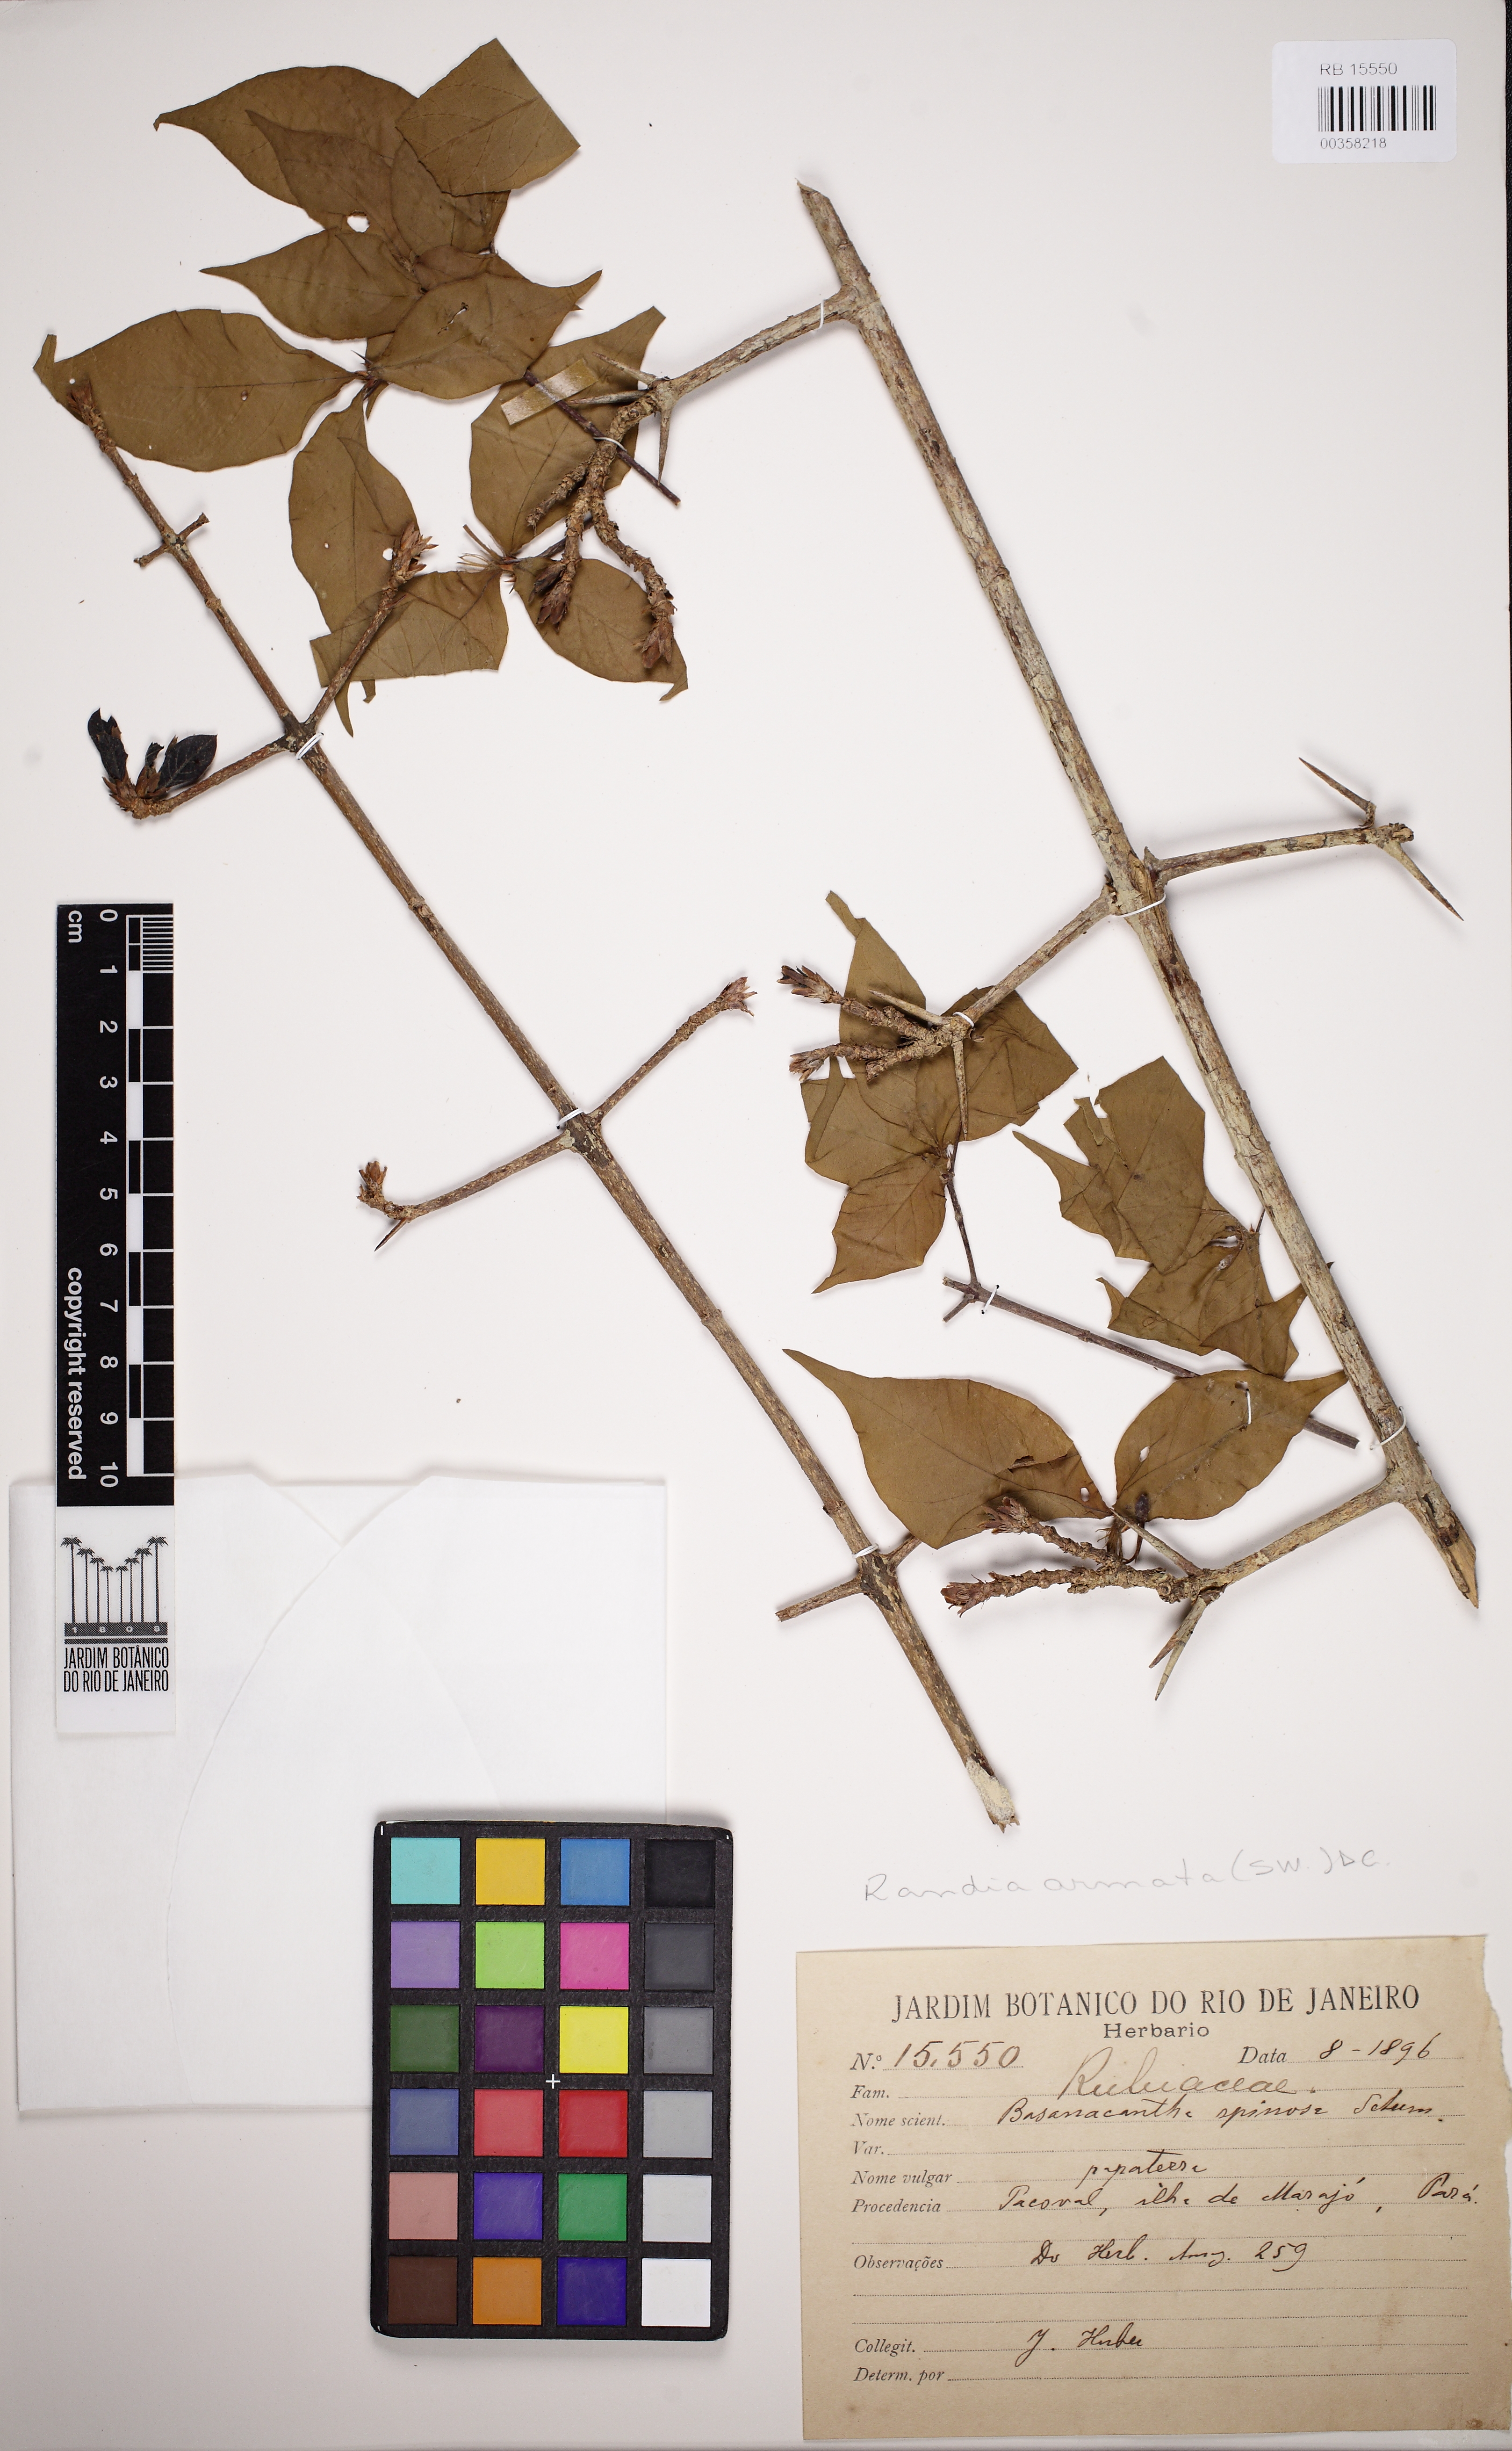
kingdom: Plantae
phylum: Tracheophyta
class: Magnoliopsida
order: Gentianales
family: Rubiaceae
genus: Randia
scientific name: Randia armata
